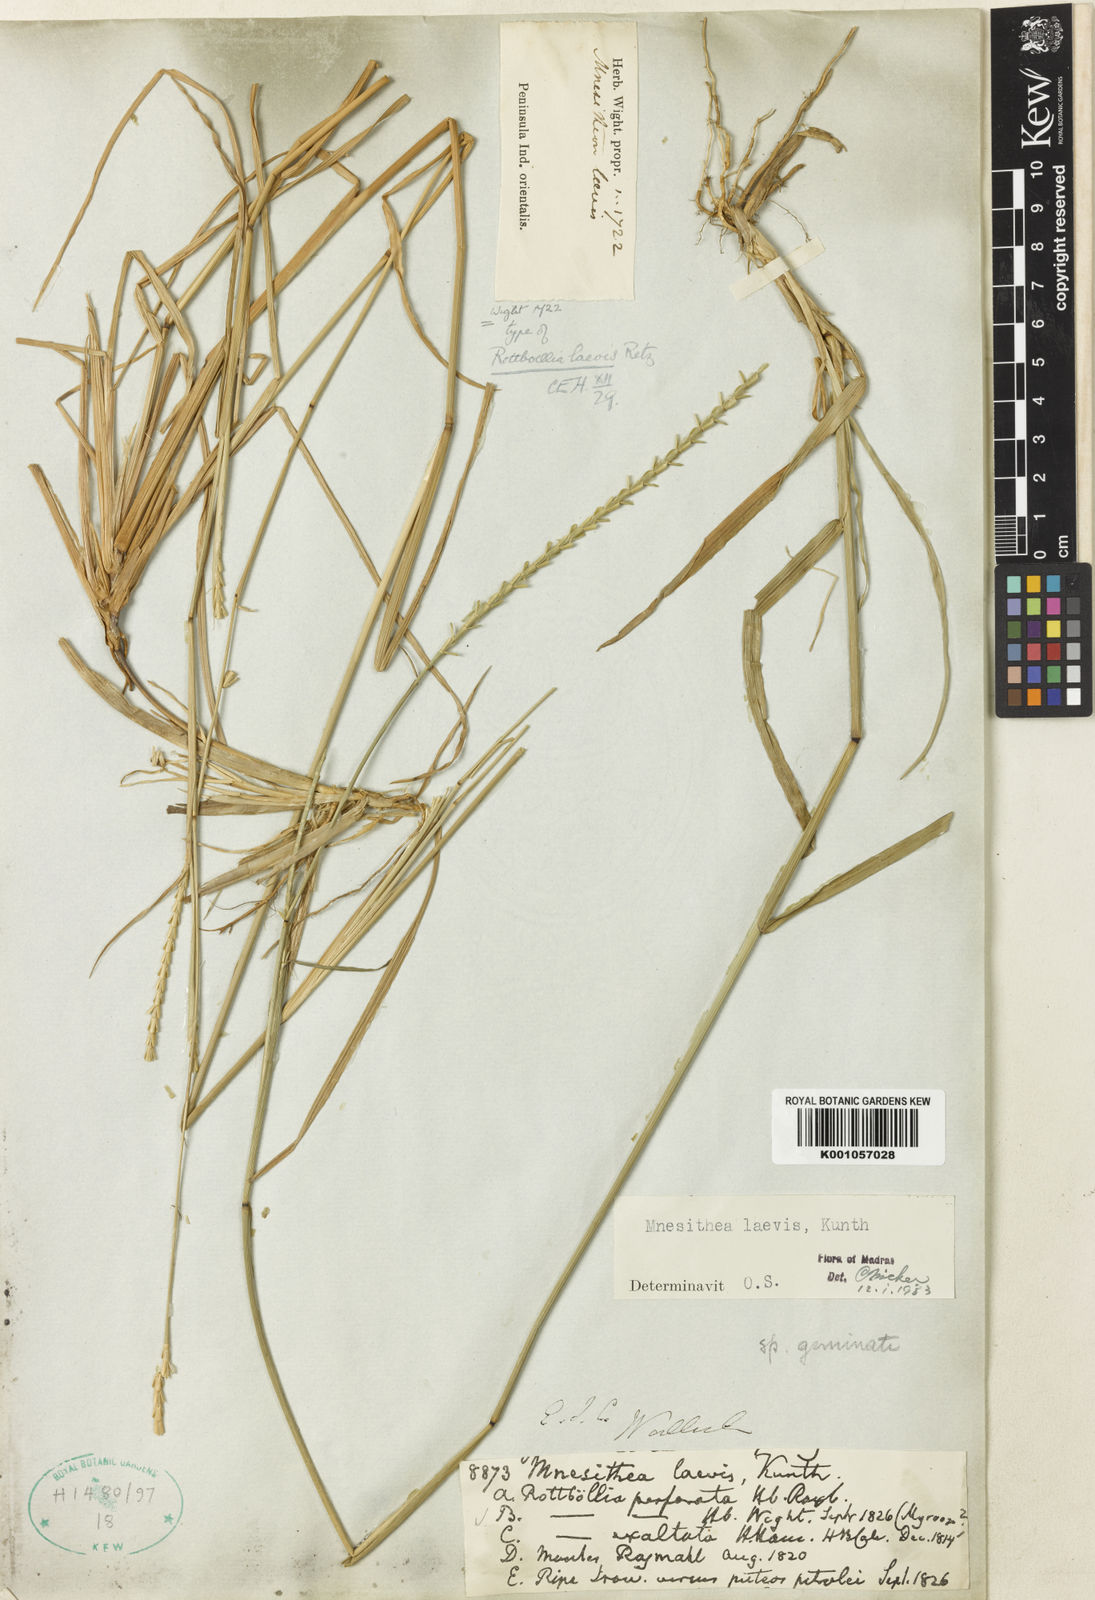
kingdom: Plantae
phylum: Tracheophyta
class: Liliopsida
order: Poales
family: Poaceae
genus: Mnesithea
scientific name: Mnesithea laevis
